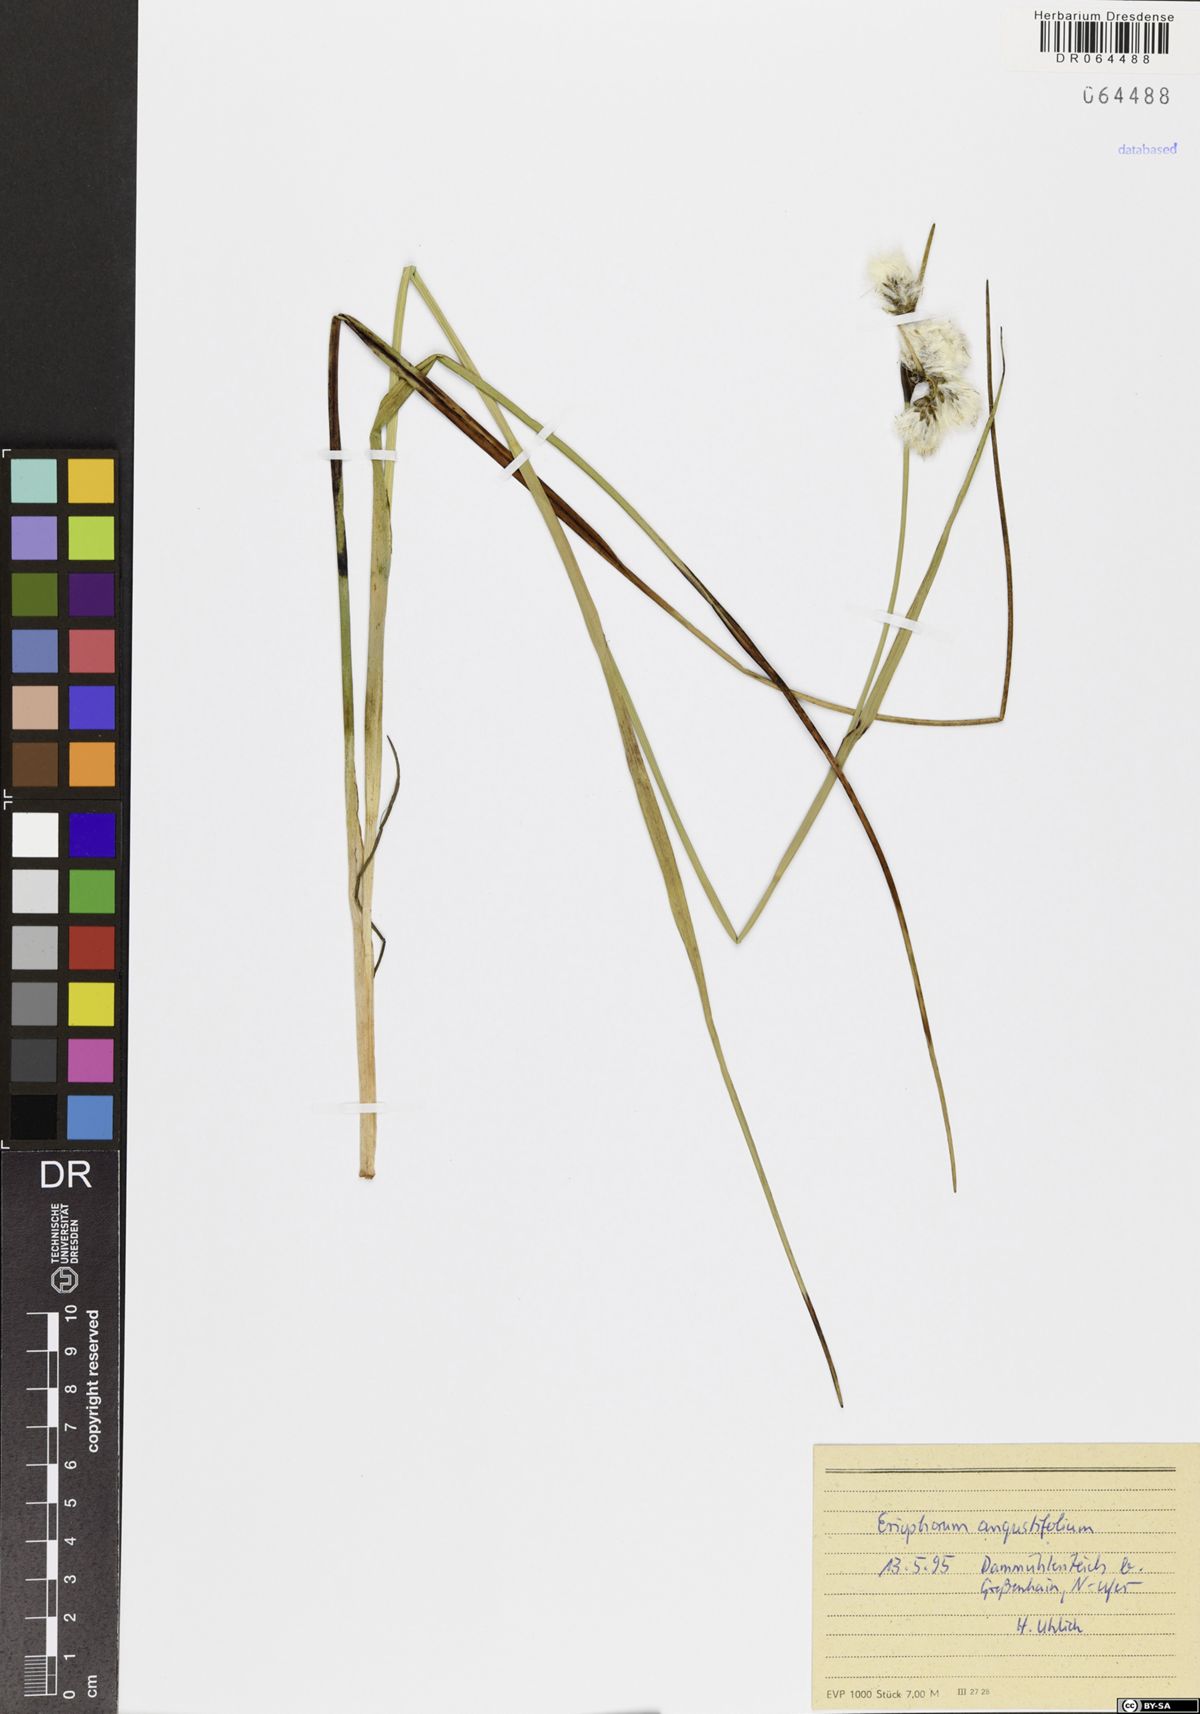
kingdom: Plantae
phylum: Tracheophyta
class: Liliopsida
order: Poales
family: Cyperaceae
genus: Eriophorum
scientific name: Eriophorum angustifolium
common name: Common cottongrass
